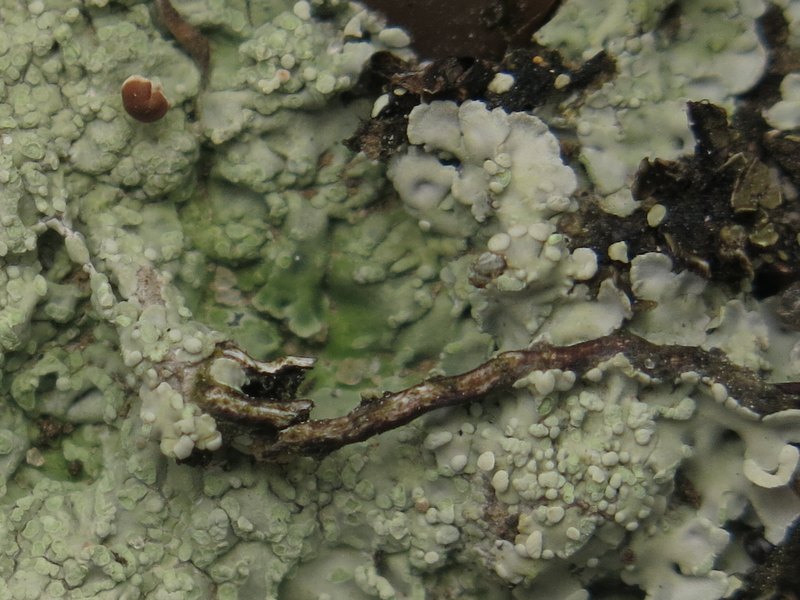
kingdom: Fungi
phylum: Ascomycota
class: Lecanoromycetes
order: Baeomycetales
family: Baeomycetaceae
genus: Baeomyces
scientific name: Baeomyces placophyllus
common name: bredfliget svampelav
